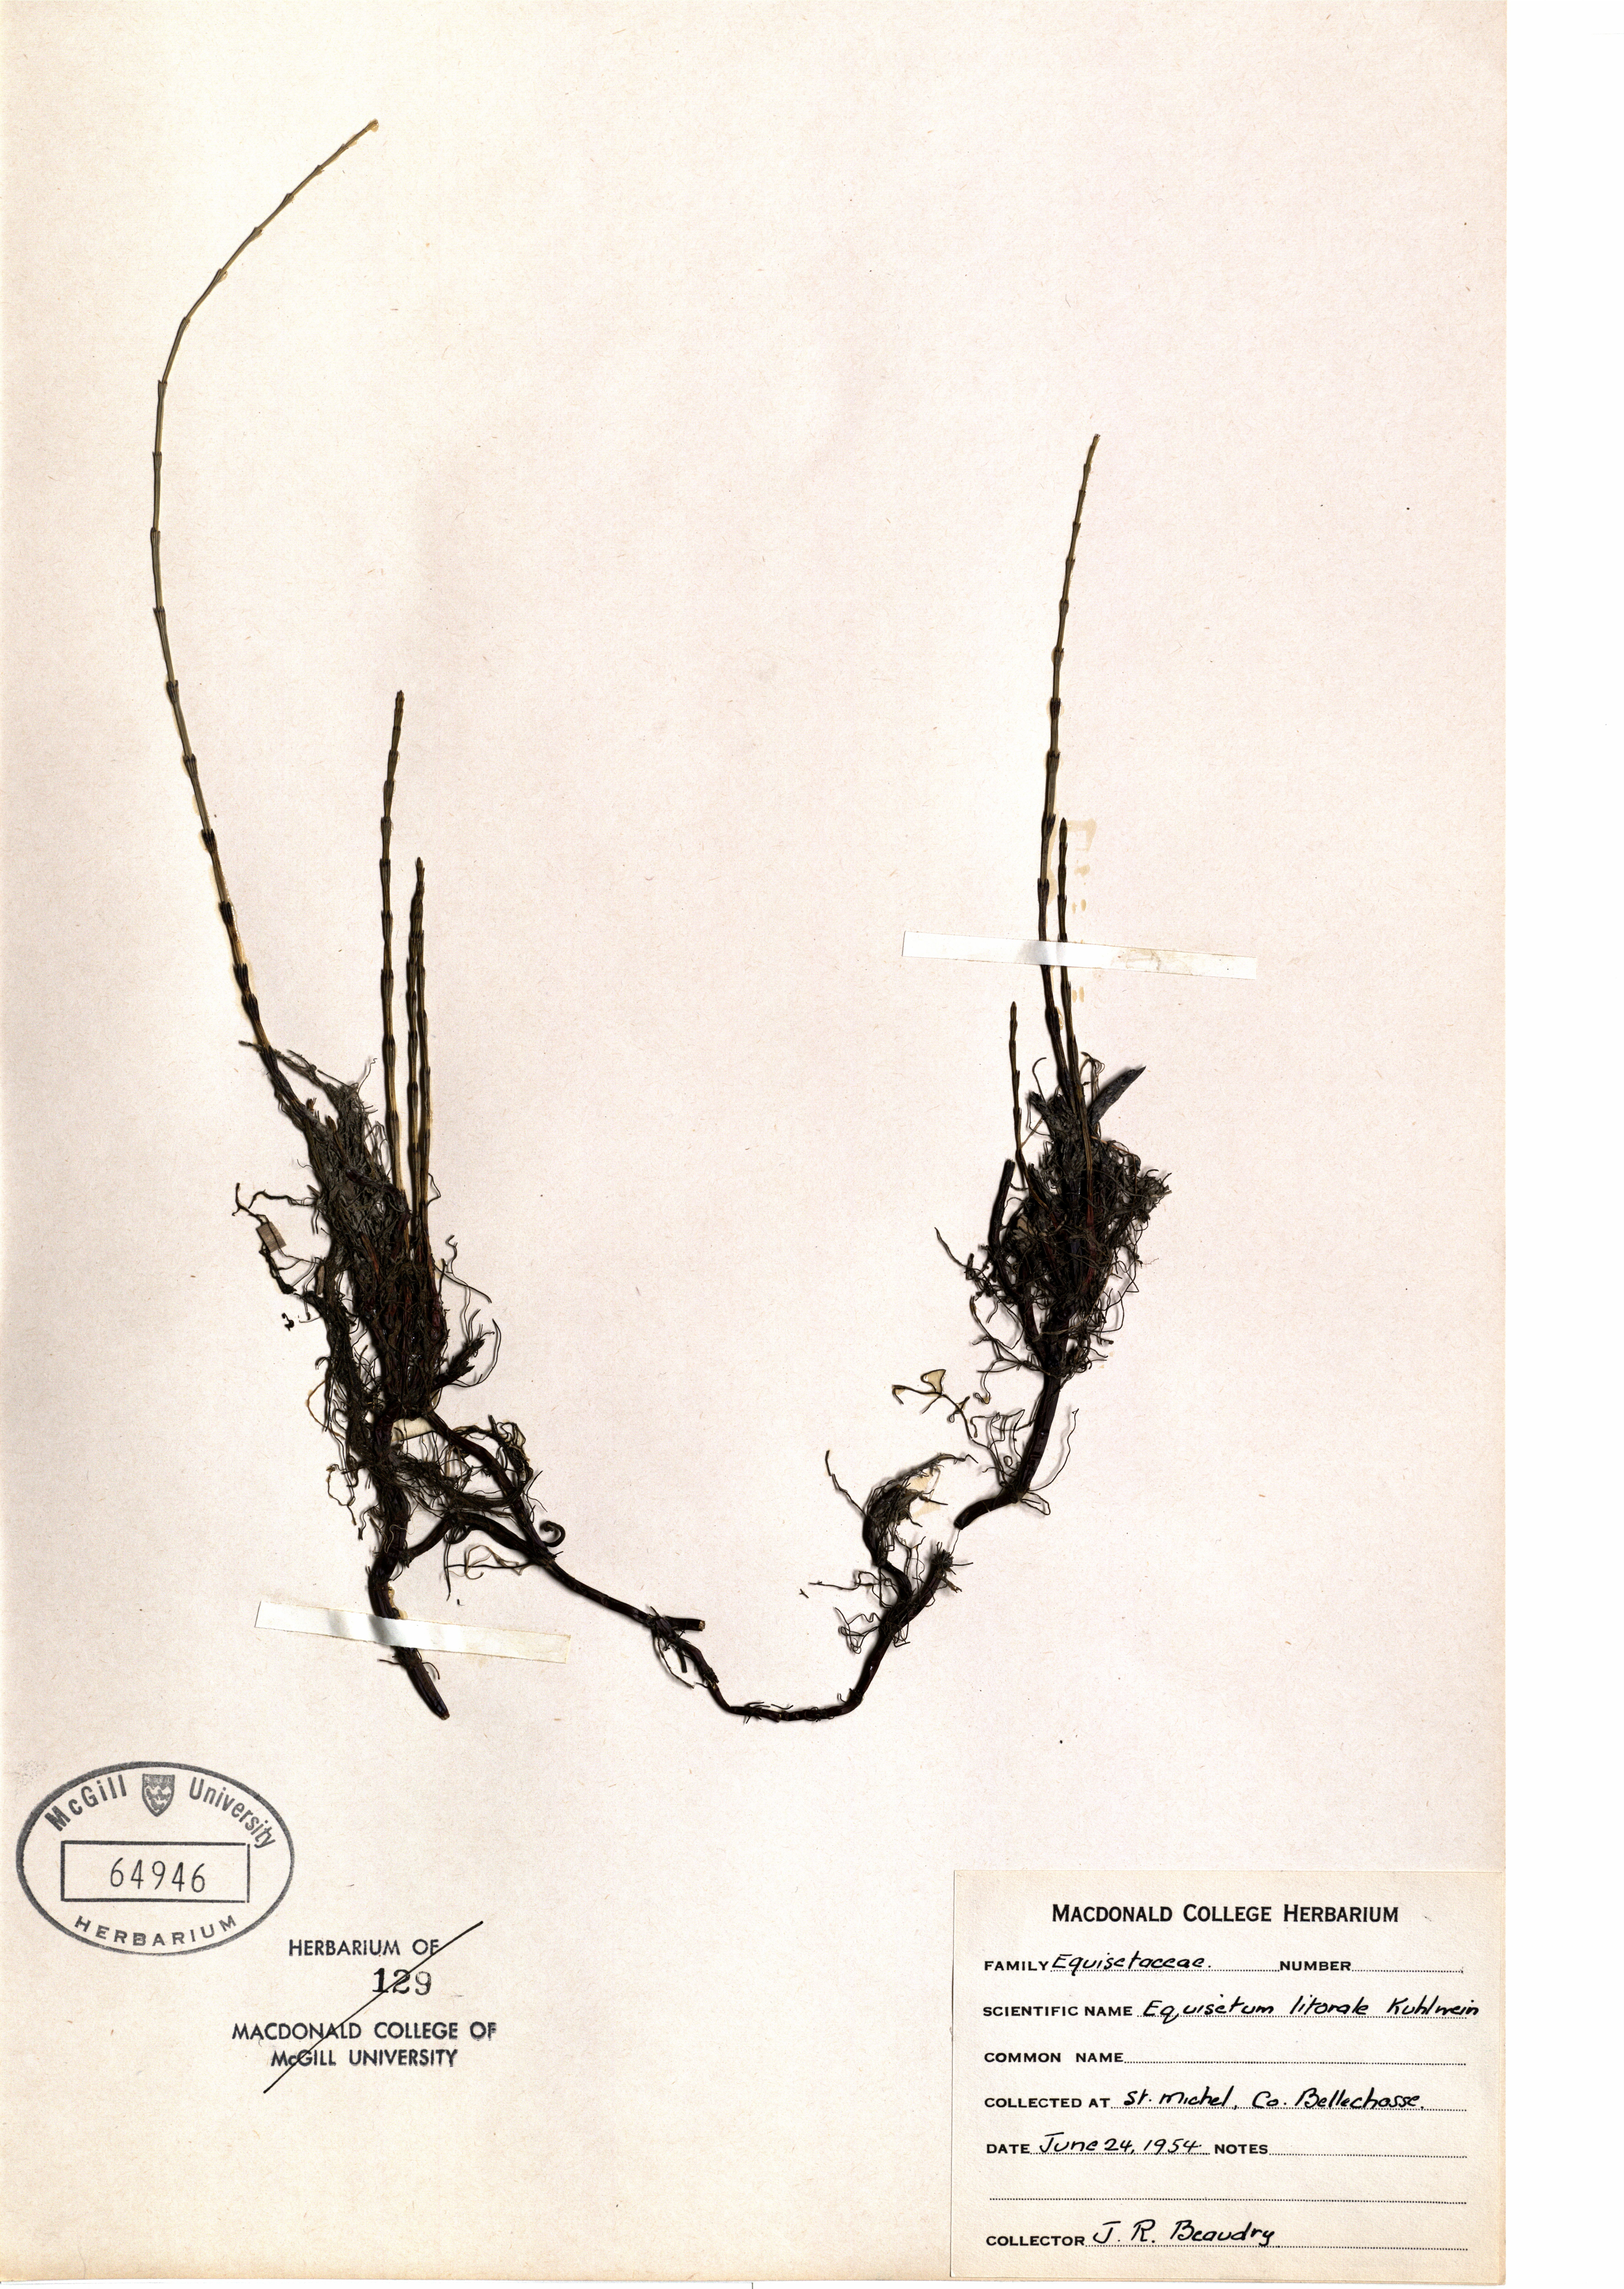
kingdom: Plantae
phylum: Tracheophyta
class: Polypodiopsida
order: Equisetales
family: Equisetaceae
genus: Equisetum
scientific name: Equisetum litorale
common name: Littoral horsetail
